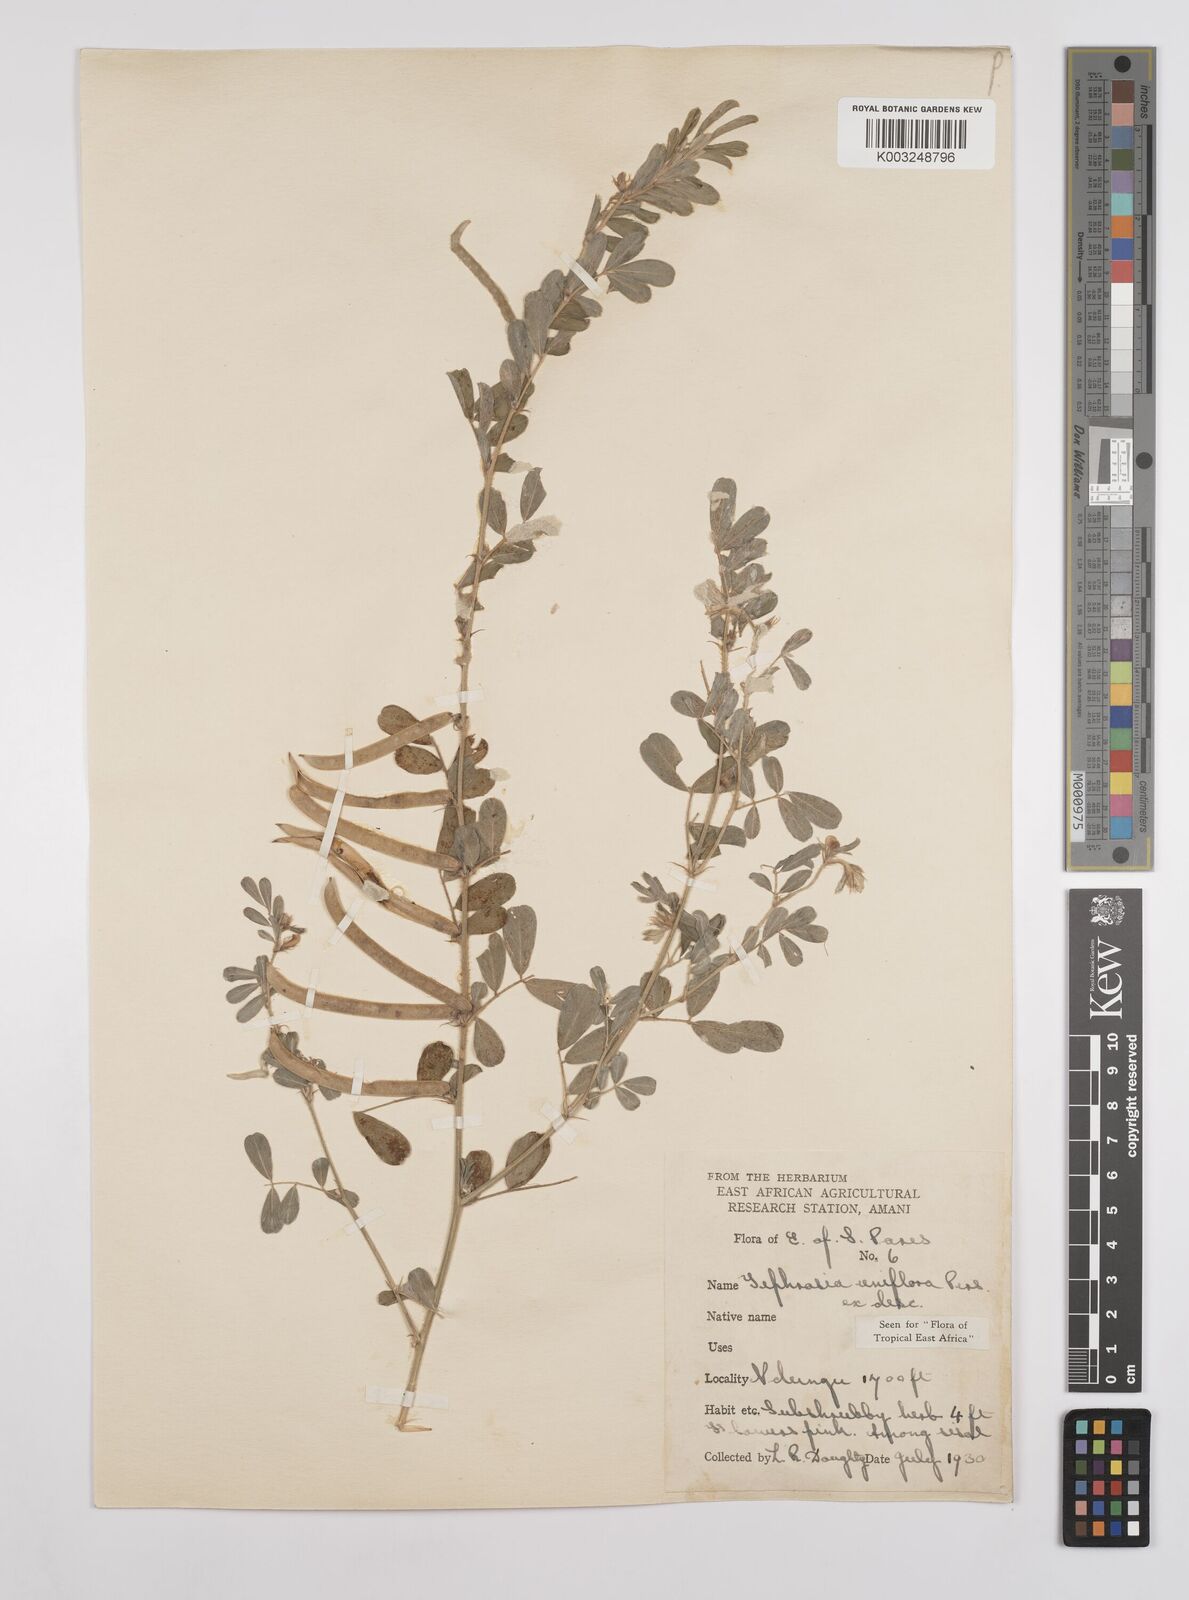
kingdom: Plantae
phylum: Tracheophyta
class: Magnoliopsida
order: Fabales
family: Fabaceae
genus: Tephrosia
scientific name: Tephrosia uniflora
